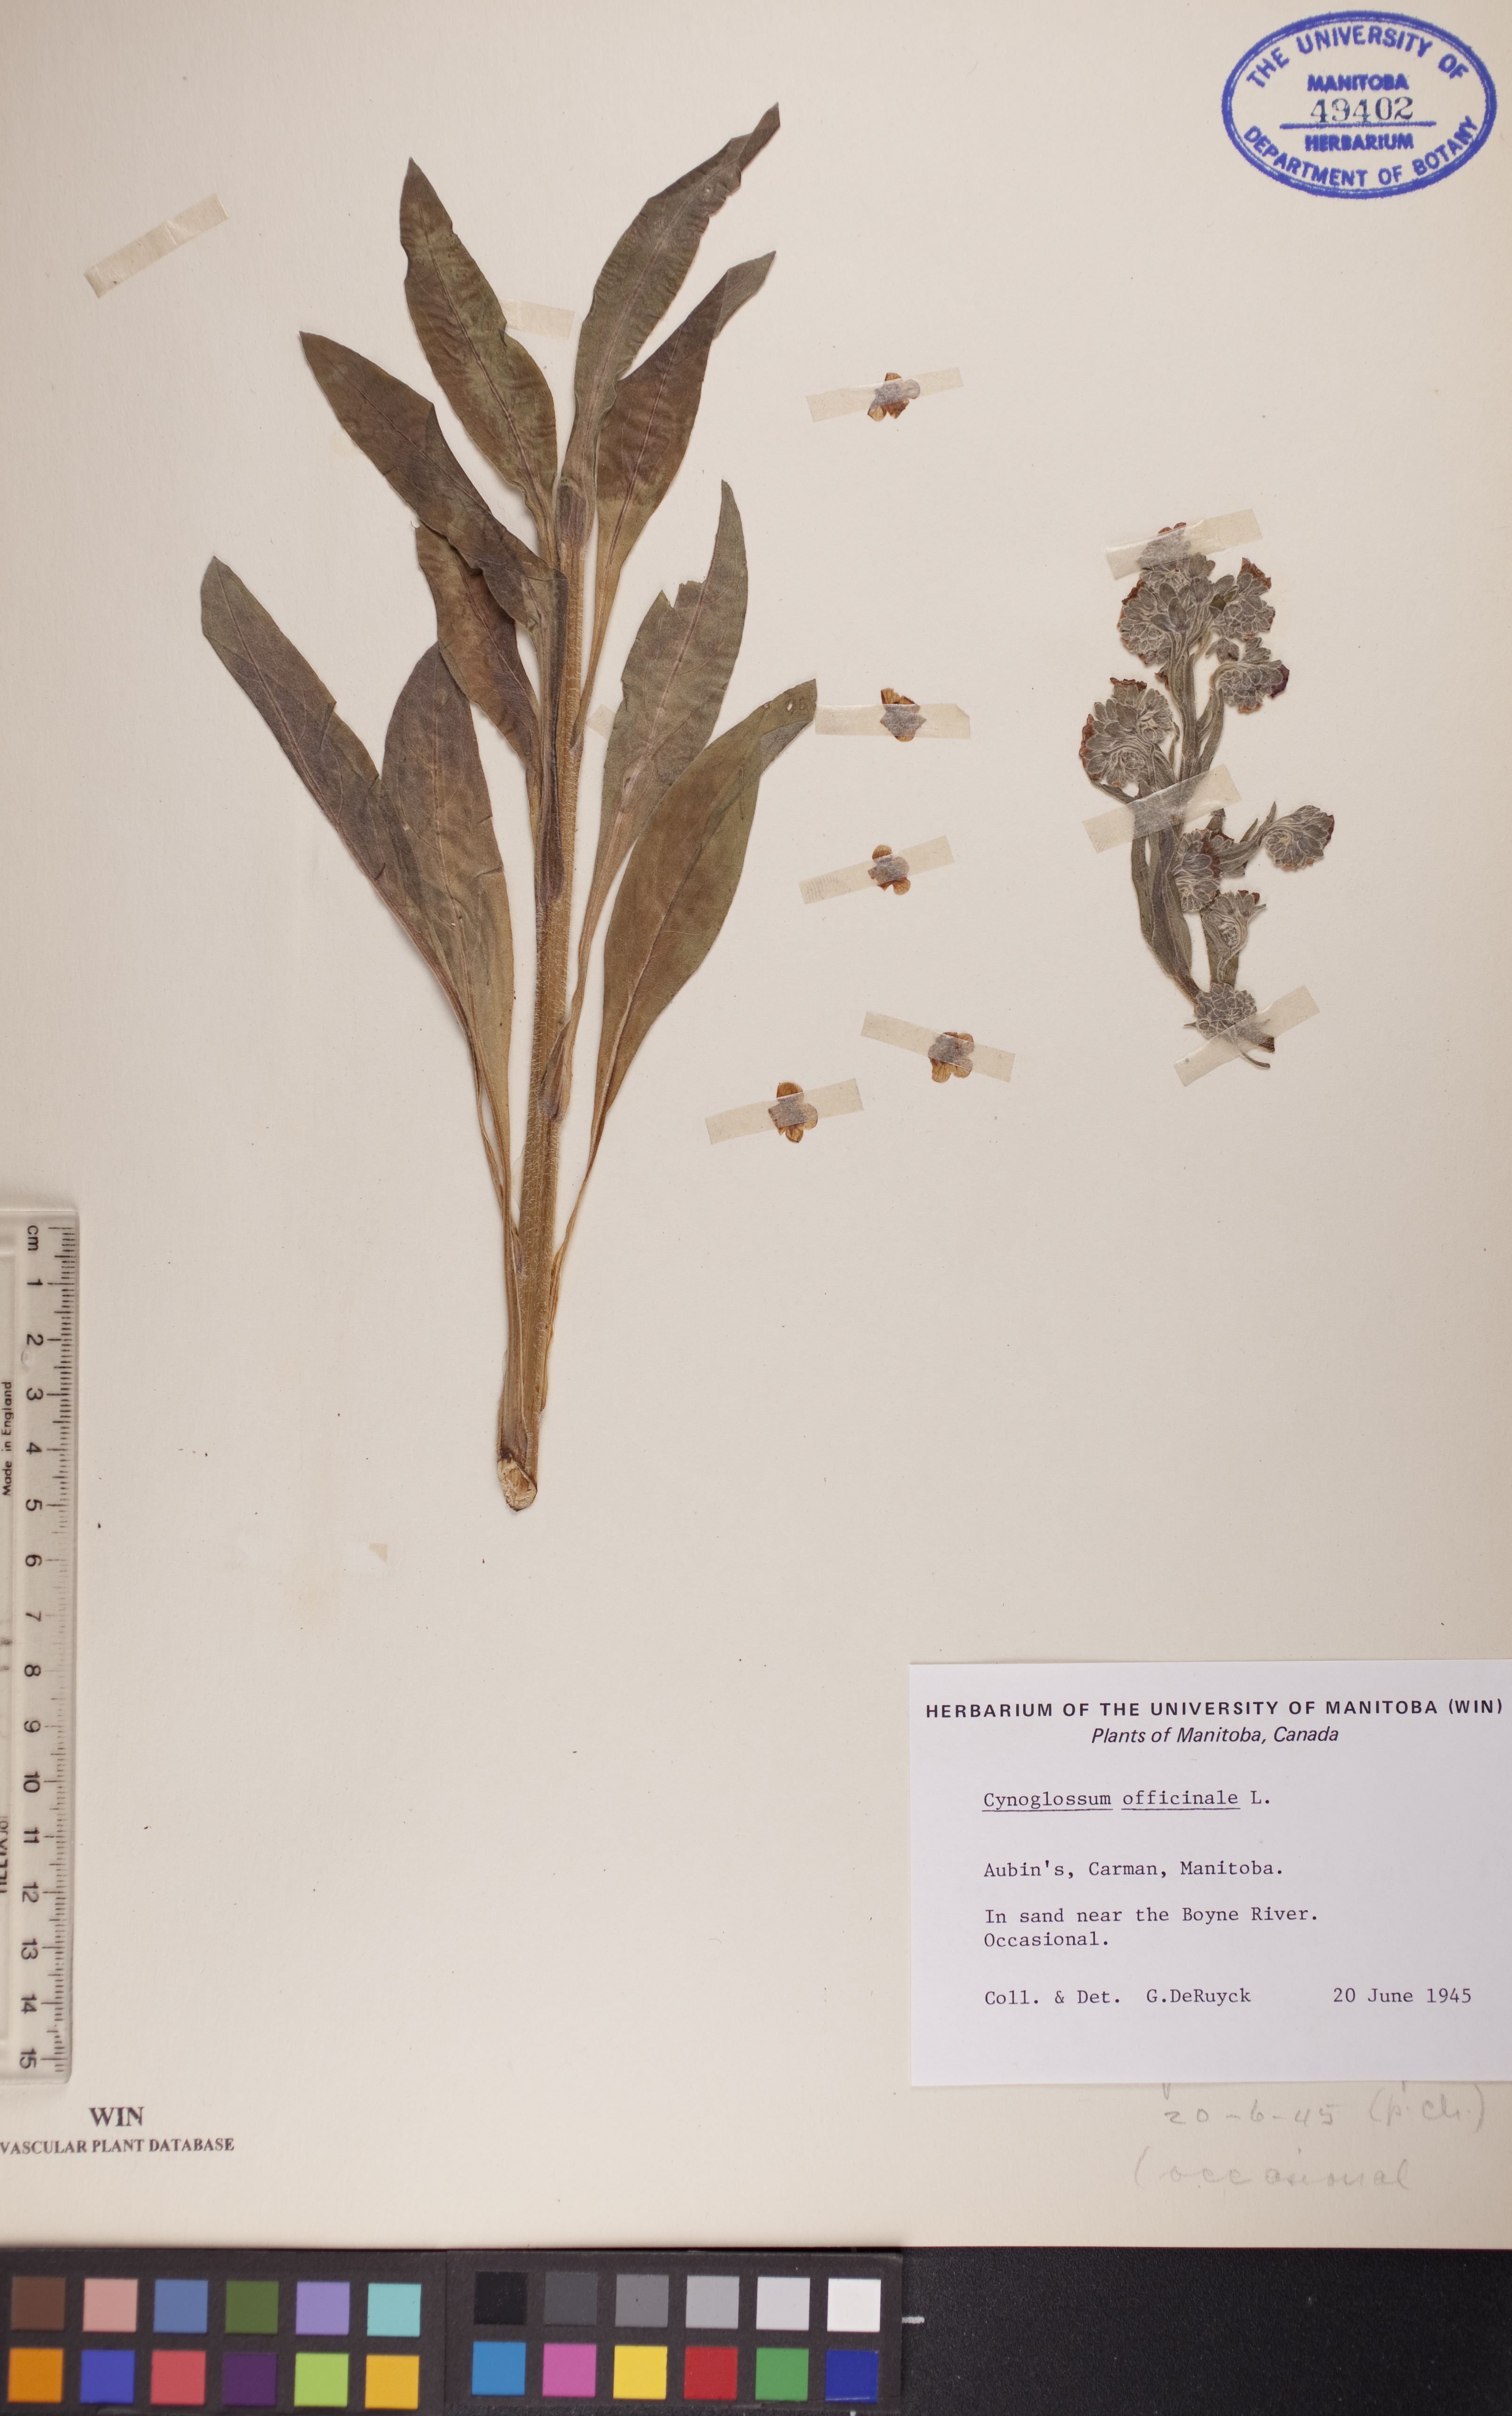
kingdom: Plantae
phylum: Tracheophyta
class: Magnoliopsida
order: Boraginales
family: Boraginaceae
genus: Cynoglossum
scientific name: Cynoglossum officinale
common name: Hound's-tongue
